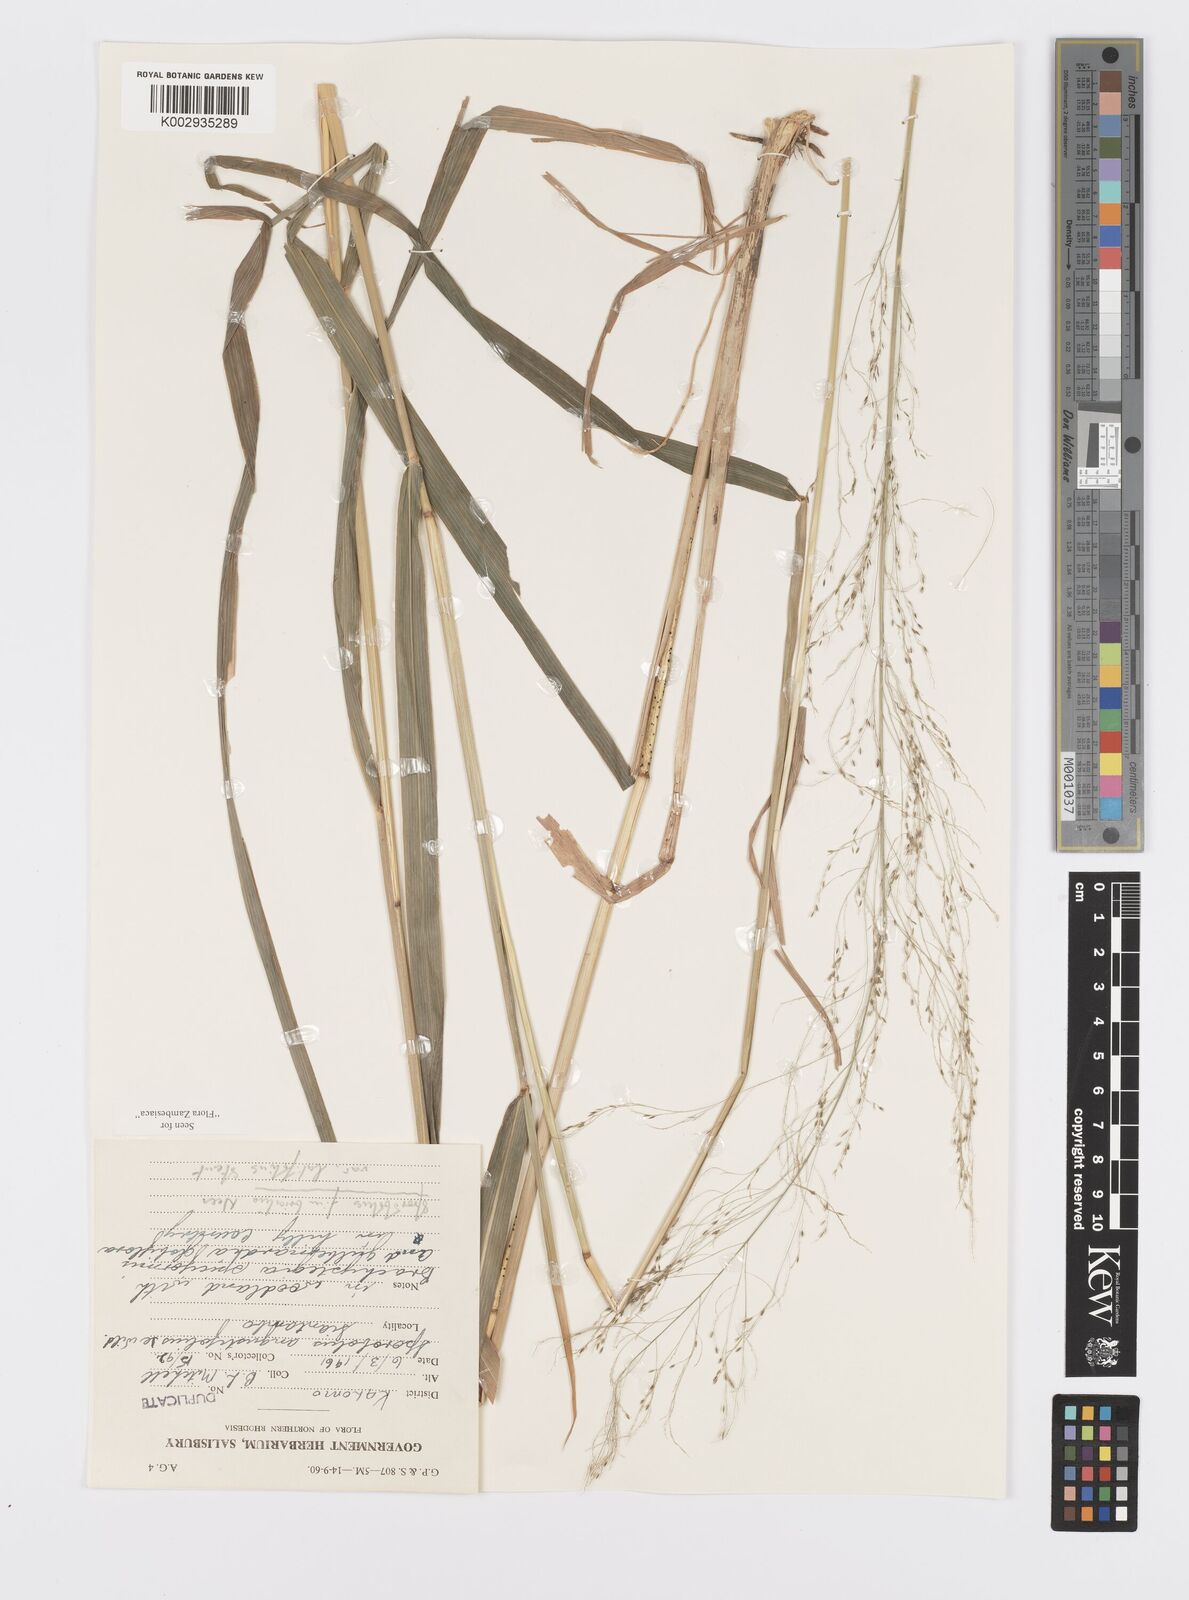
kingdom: Plantae
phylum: Tracheophyta
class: Liliopsida
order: Poales
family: Poaceae
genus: Sporobolus
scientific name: Sporobolus fimbriatus
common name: Fringed dropseed
